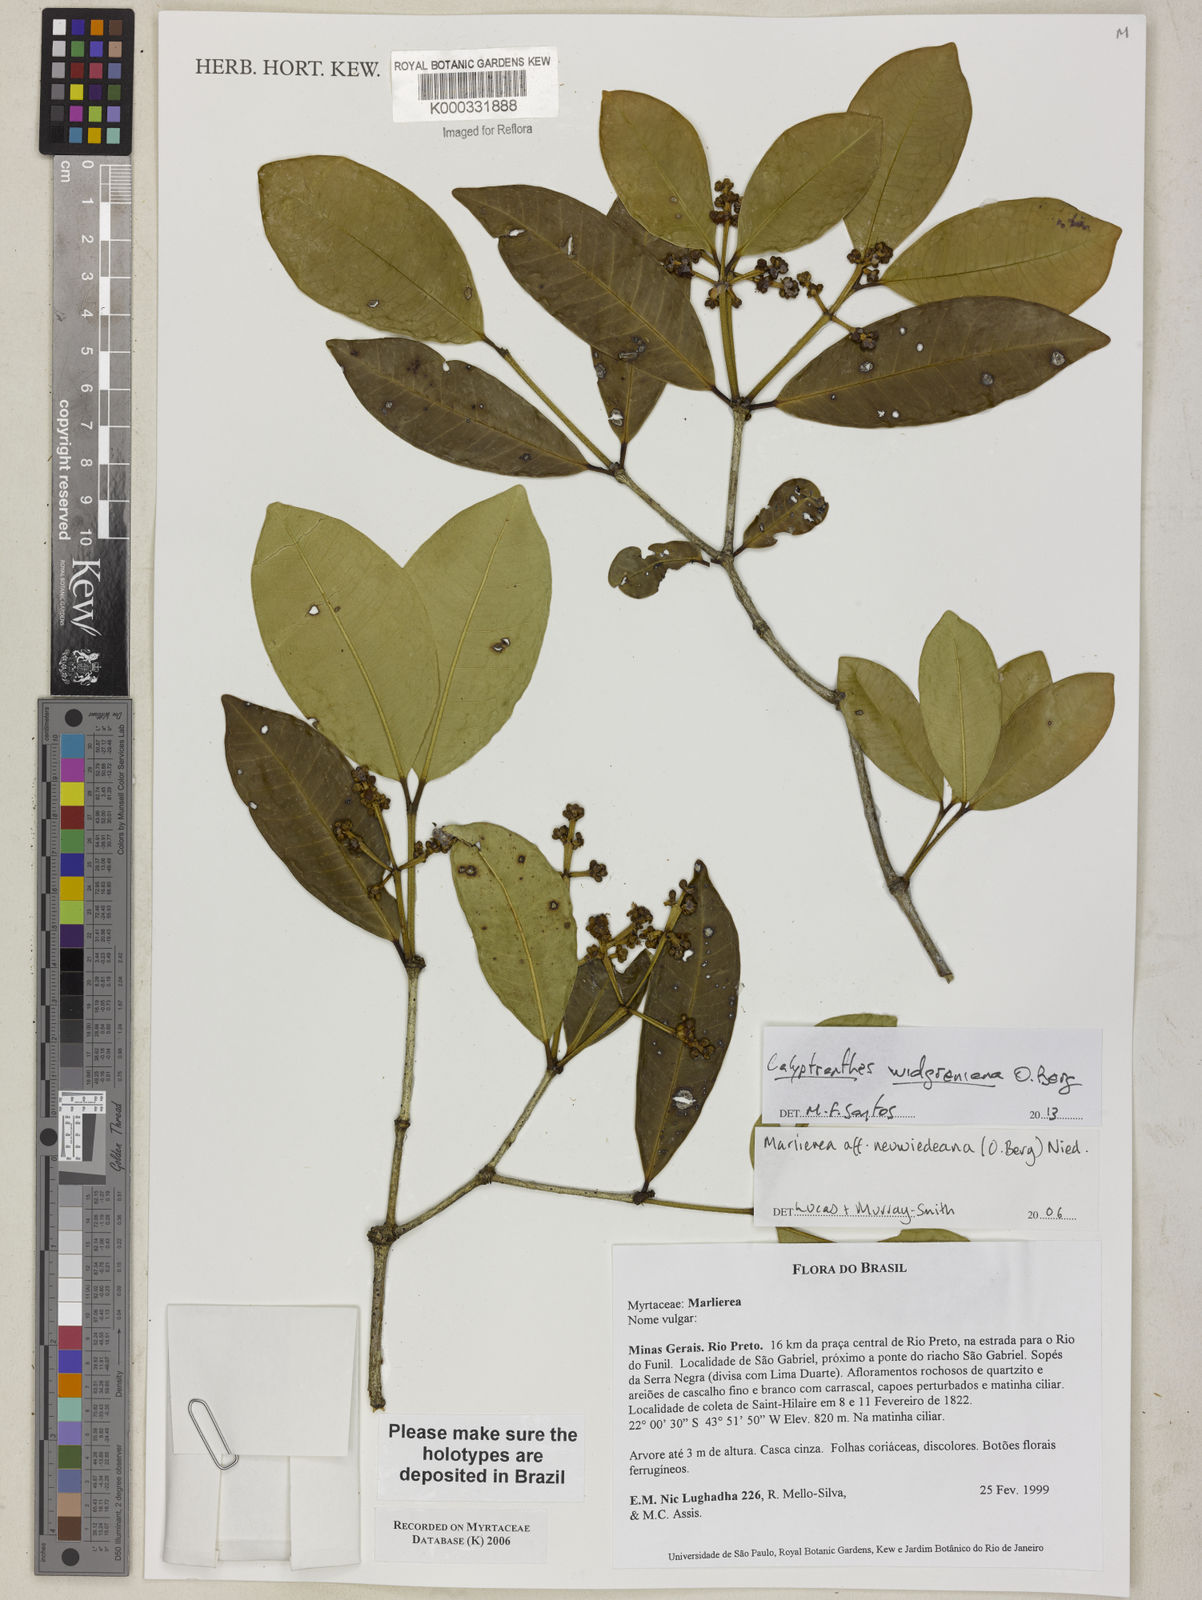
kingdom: Plantae
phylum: Tracheophyta
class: Magnoliopsida
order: Myrtales
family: Myrtaceae
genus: Myrcia
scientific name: Myrcia neuwiedeana
